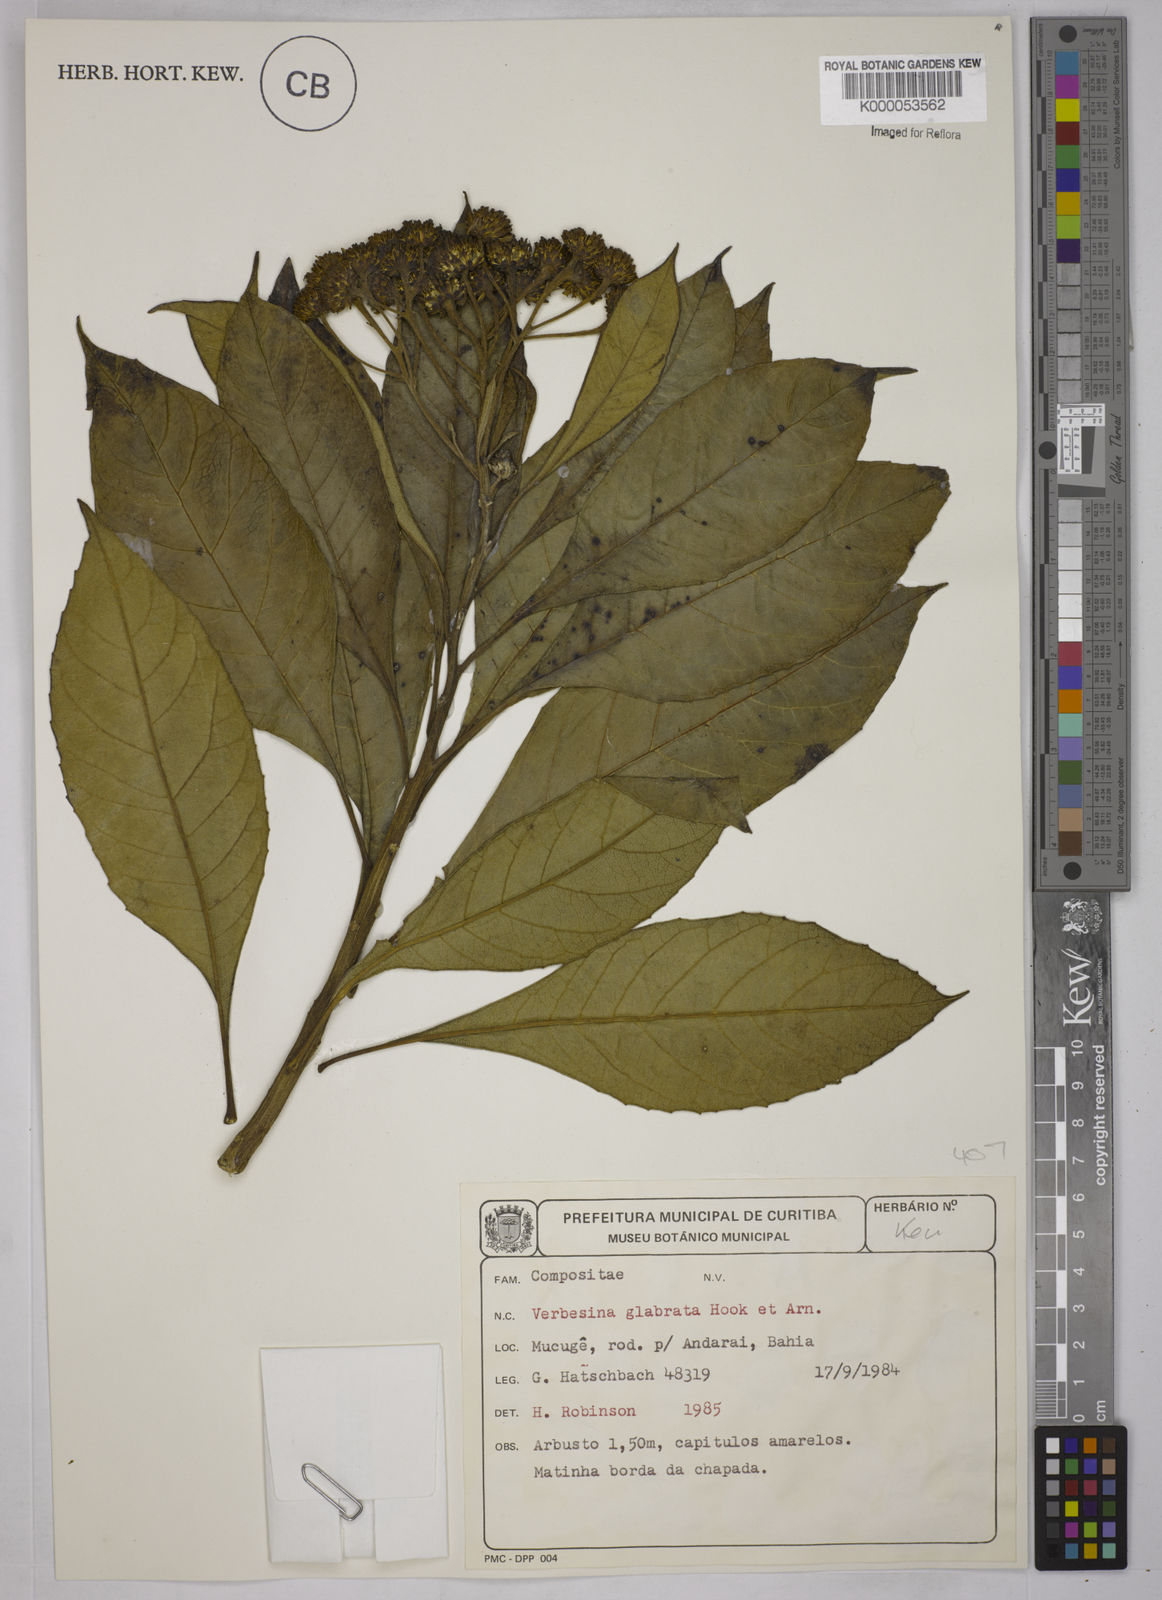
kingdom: Plantae
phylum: Tracheophyta
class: Magnoliopsida
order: Asterales
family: Asteraceae
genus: Verbesina
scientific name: Verbesina glabrata
